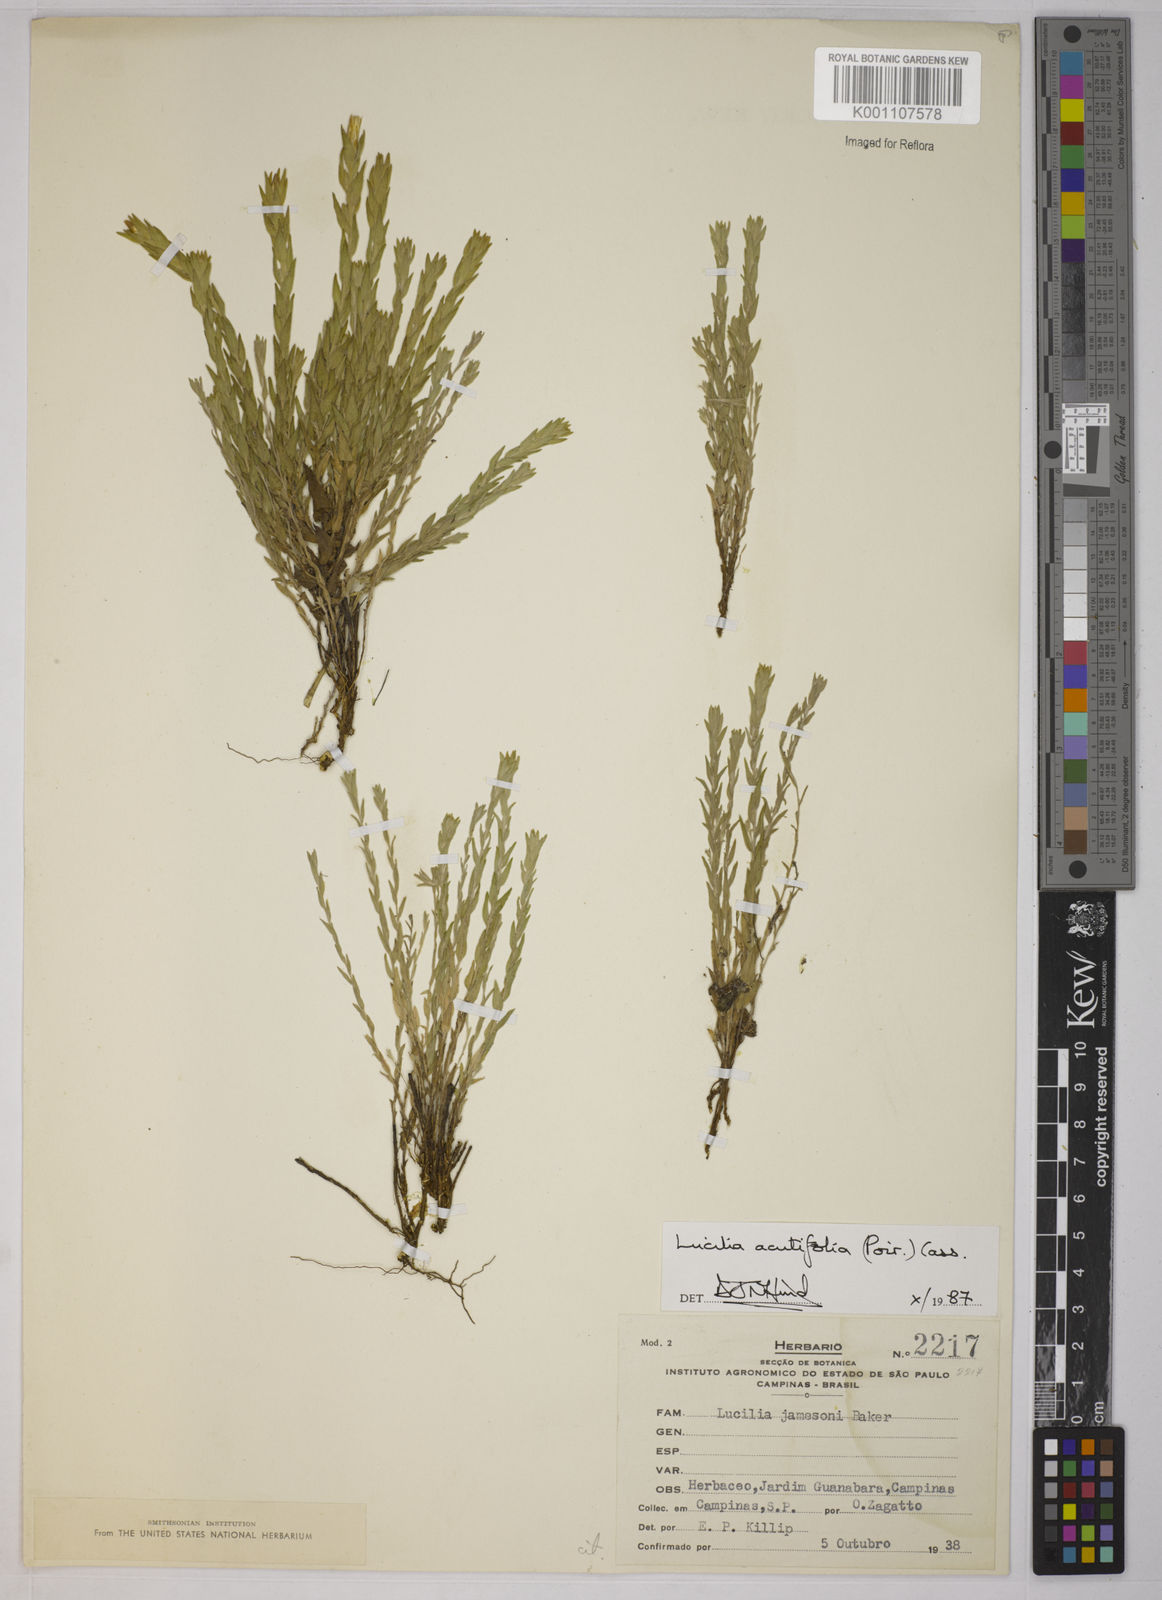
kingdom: Plantae
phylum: Tracheophyta
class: Magnoliopsida
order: Asterales
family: Asteraceae
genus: Lucilia
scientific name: Lucilia acutifolia
